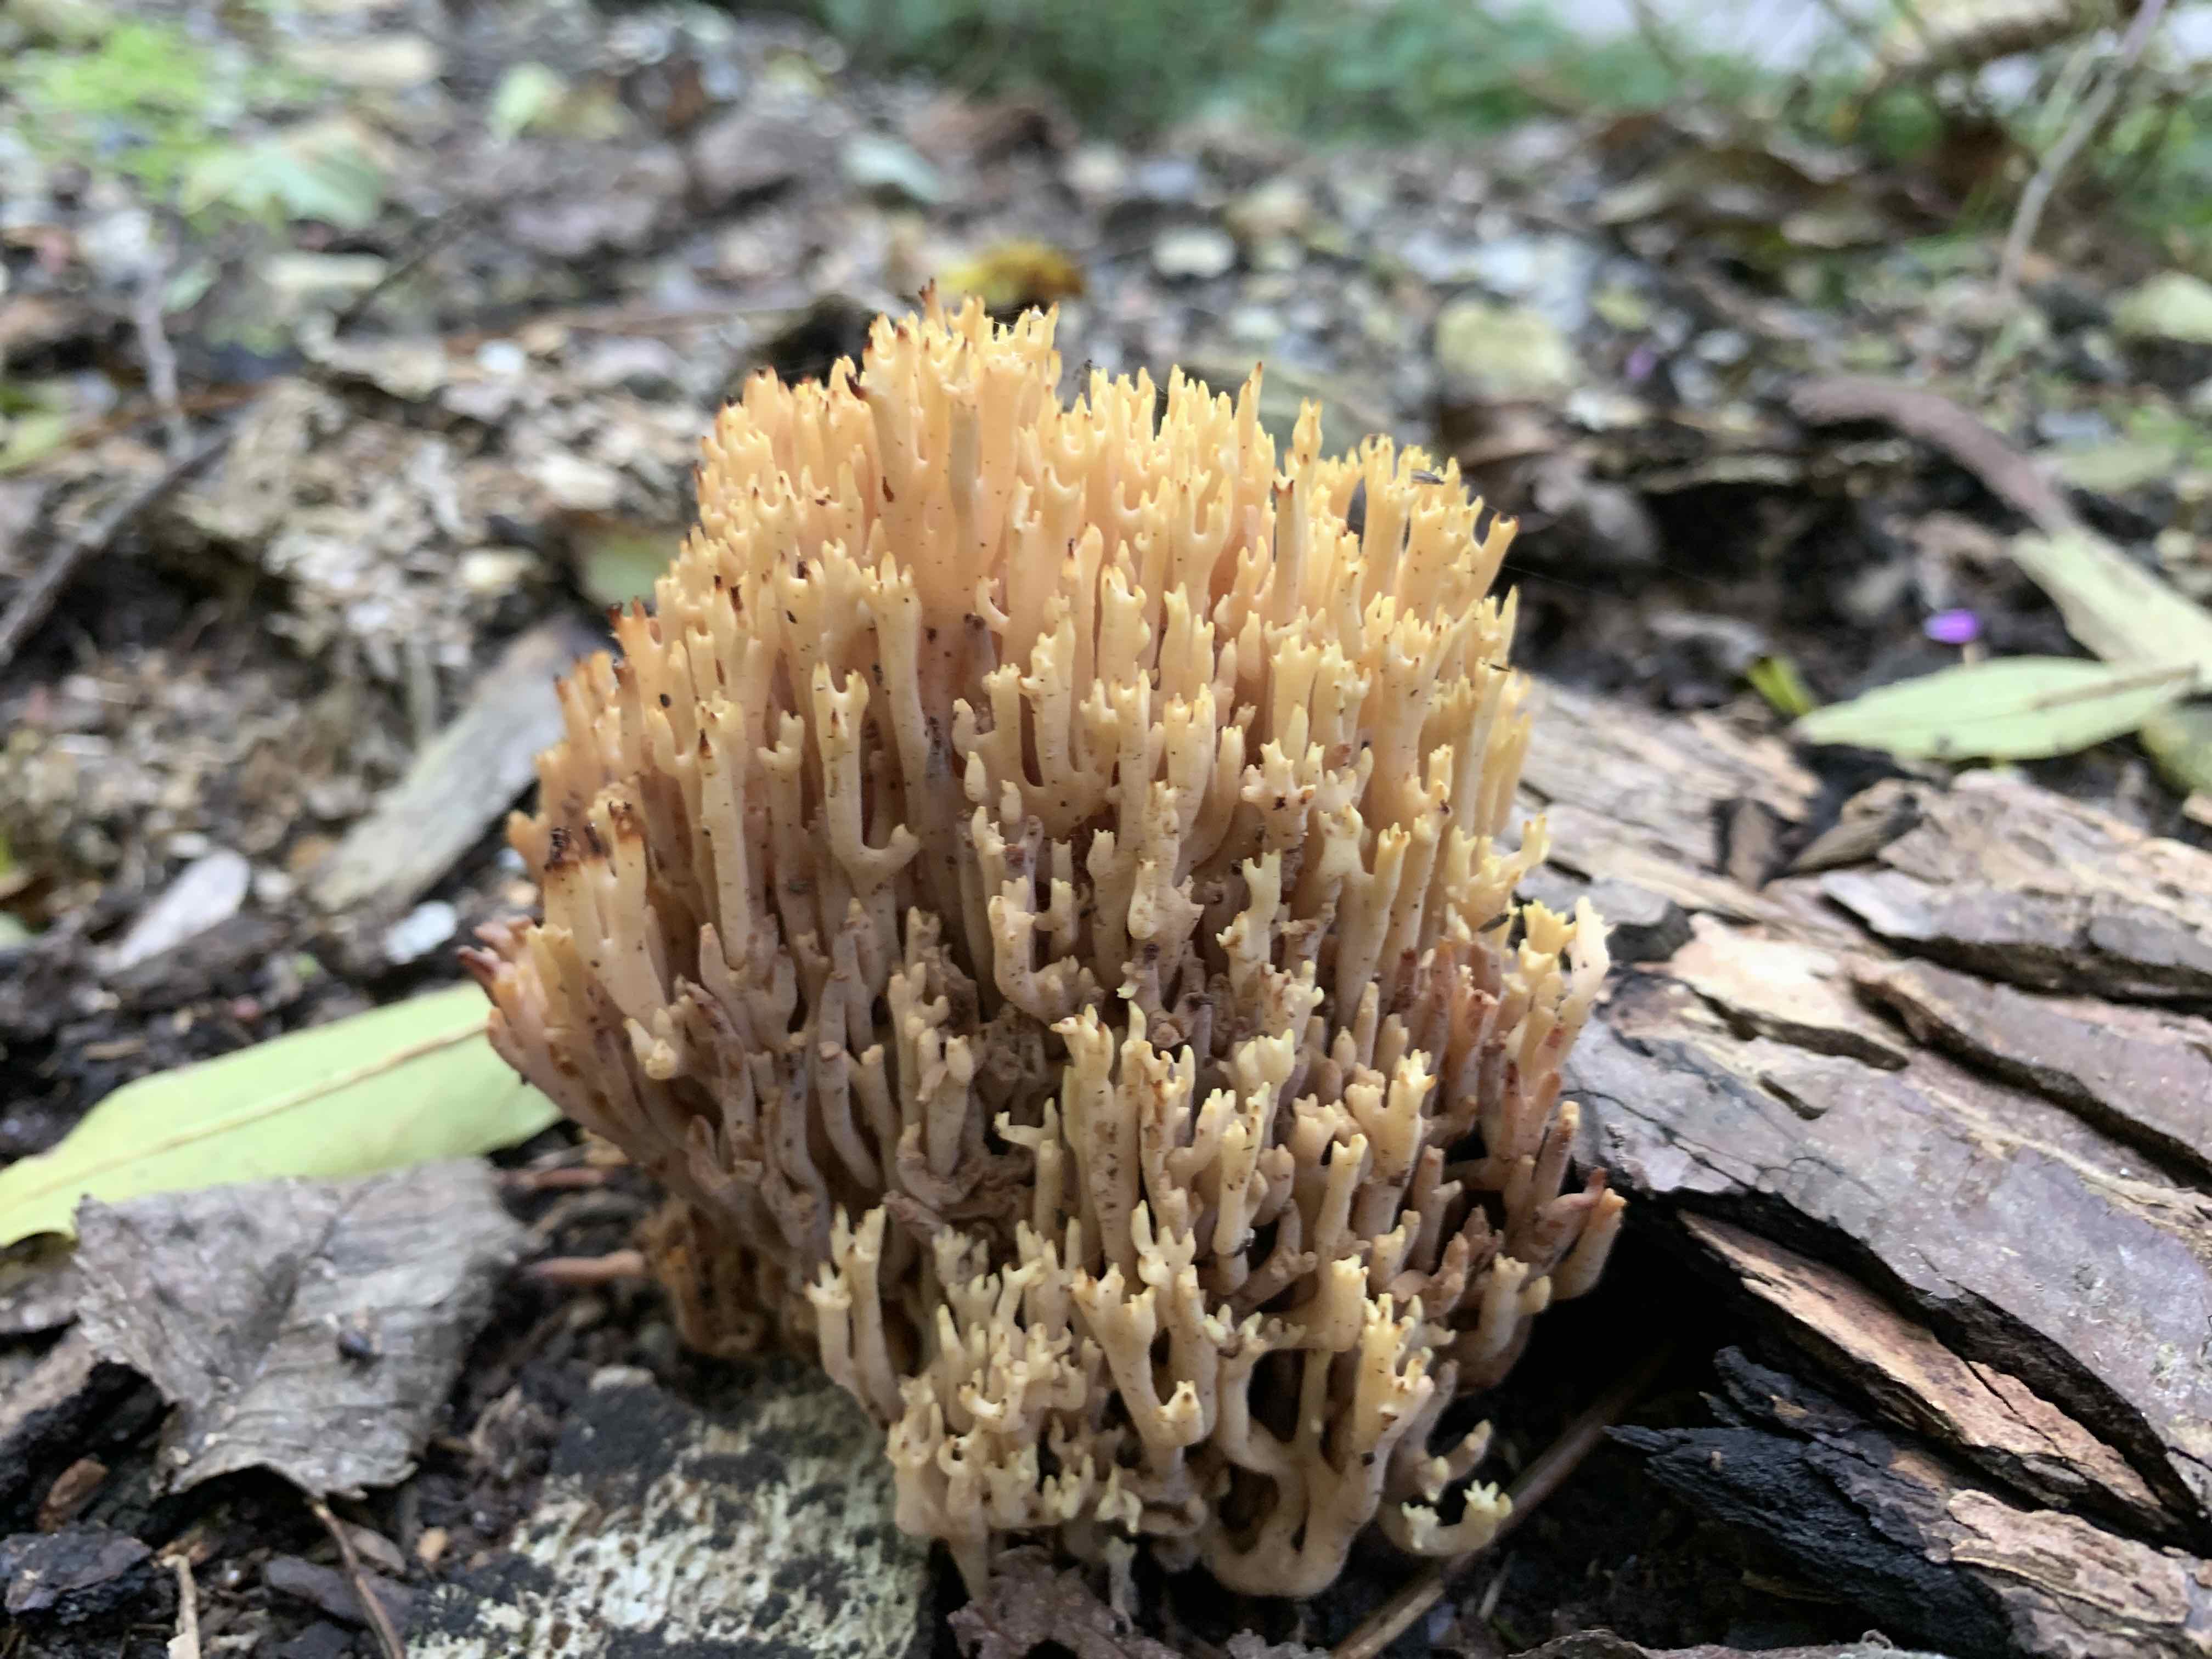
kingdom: Fungi
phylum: Basidiomycota
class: Agaricomycetes
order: Gomphales
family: Gomphaceae
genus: Ramaria
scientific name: Ramaria stricta
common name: rank koralsvamp
